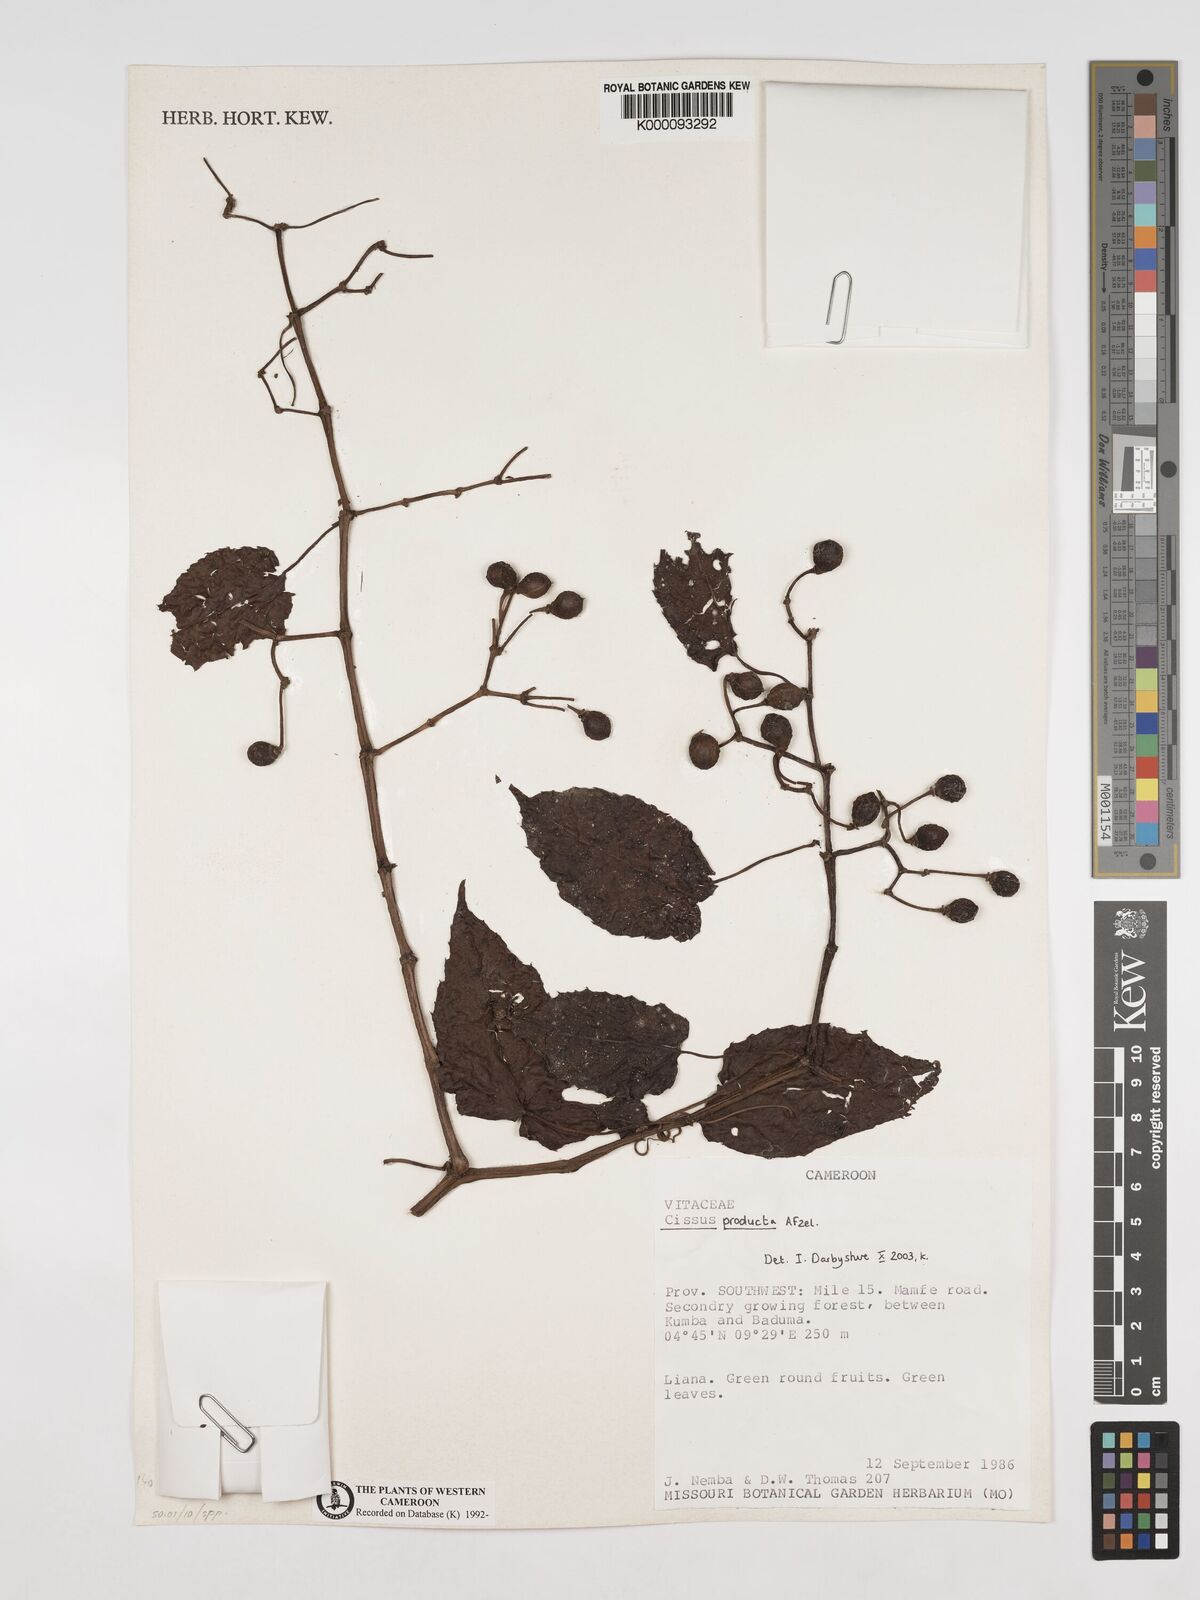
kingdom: Plantae
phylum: Tracheophyta
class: Magnoliopsida
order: Vitales
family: Vitaceae
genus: Cissus
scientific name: Cissus producta
